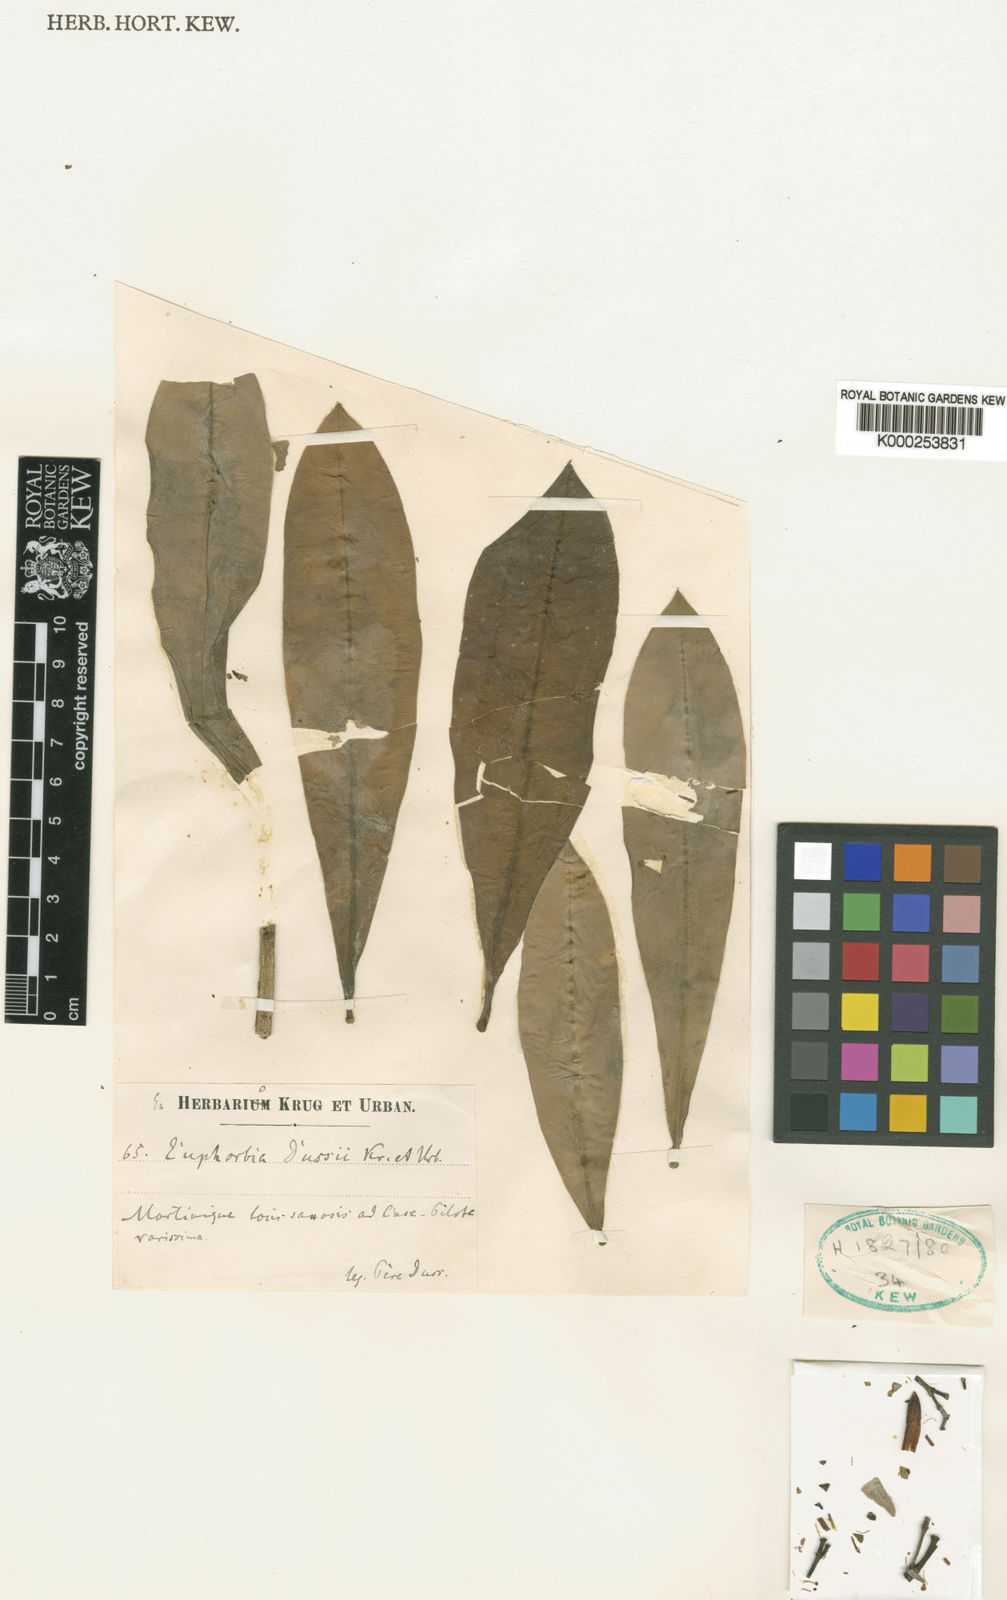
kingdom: Plantae
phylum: Tracheophyta
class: Magnoliopsida
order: Malpighiales
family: Euphorbiaceae
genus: Euphorbia
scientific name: Euphorbia dussii
